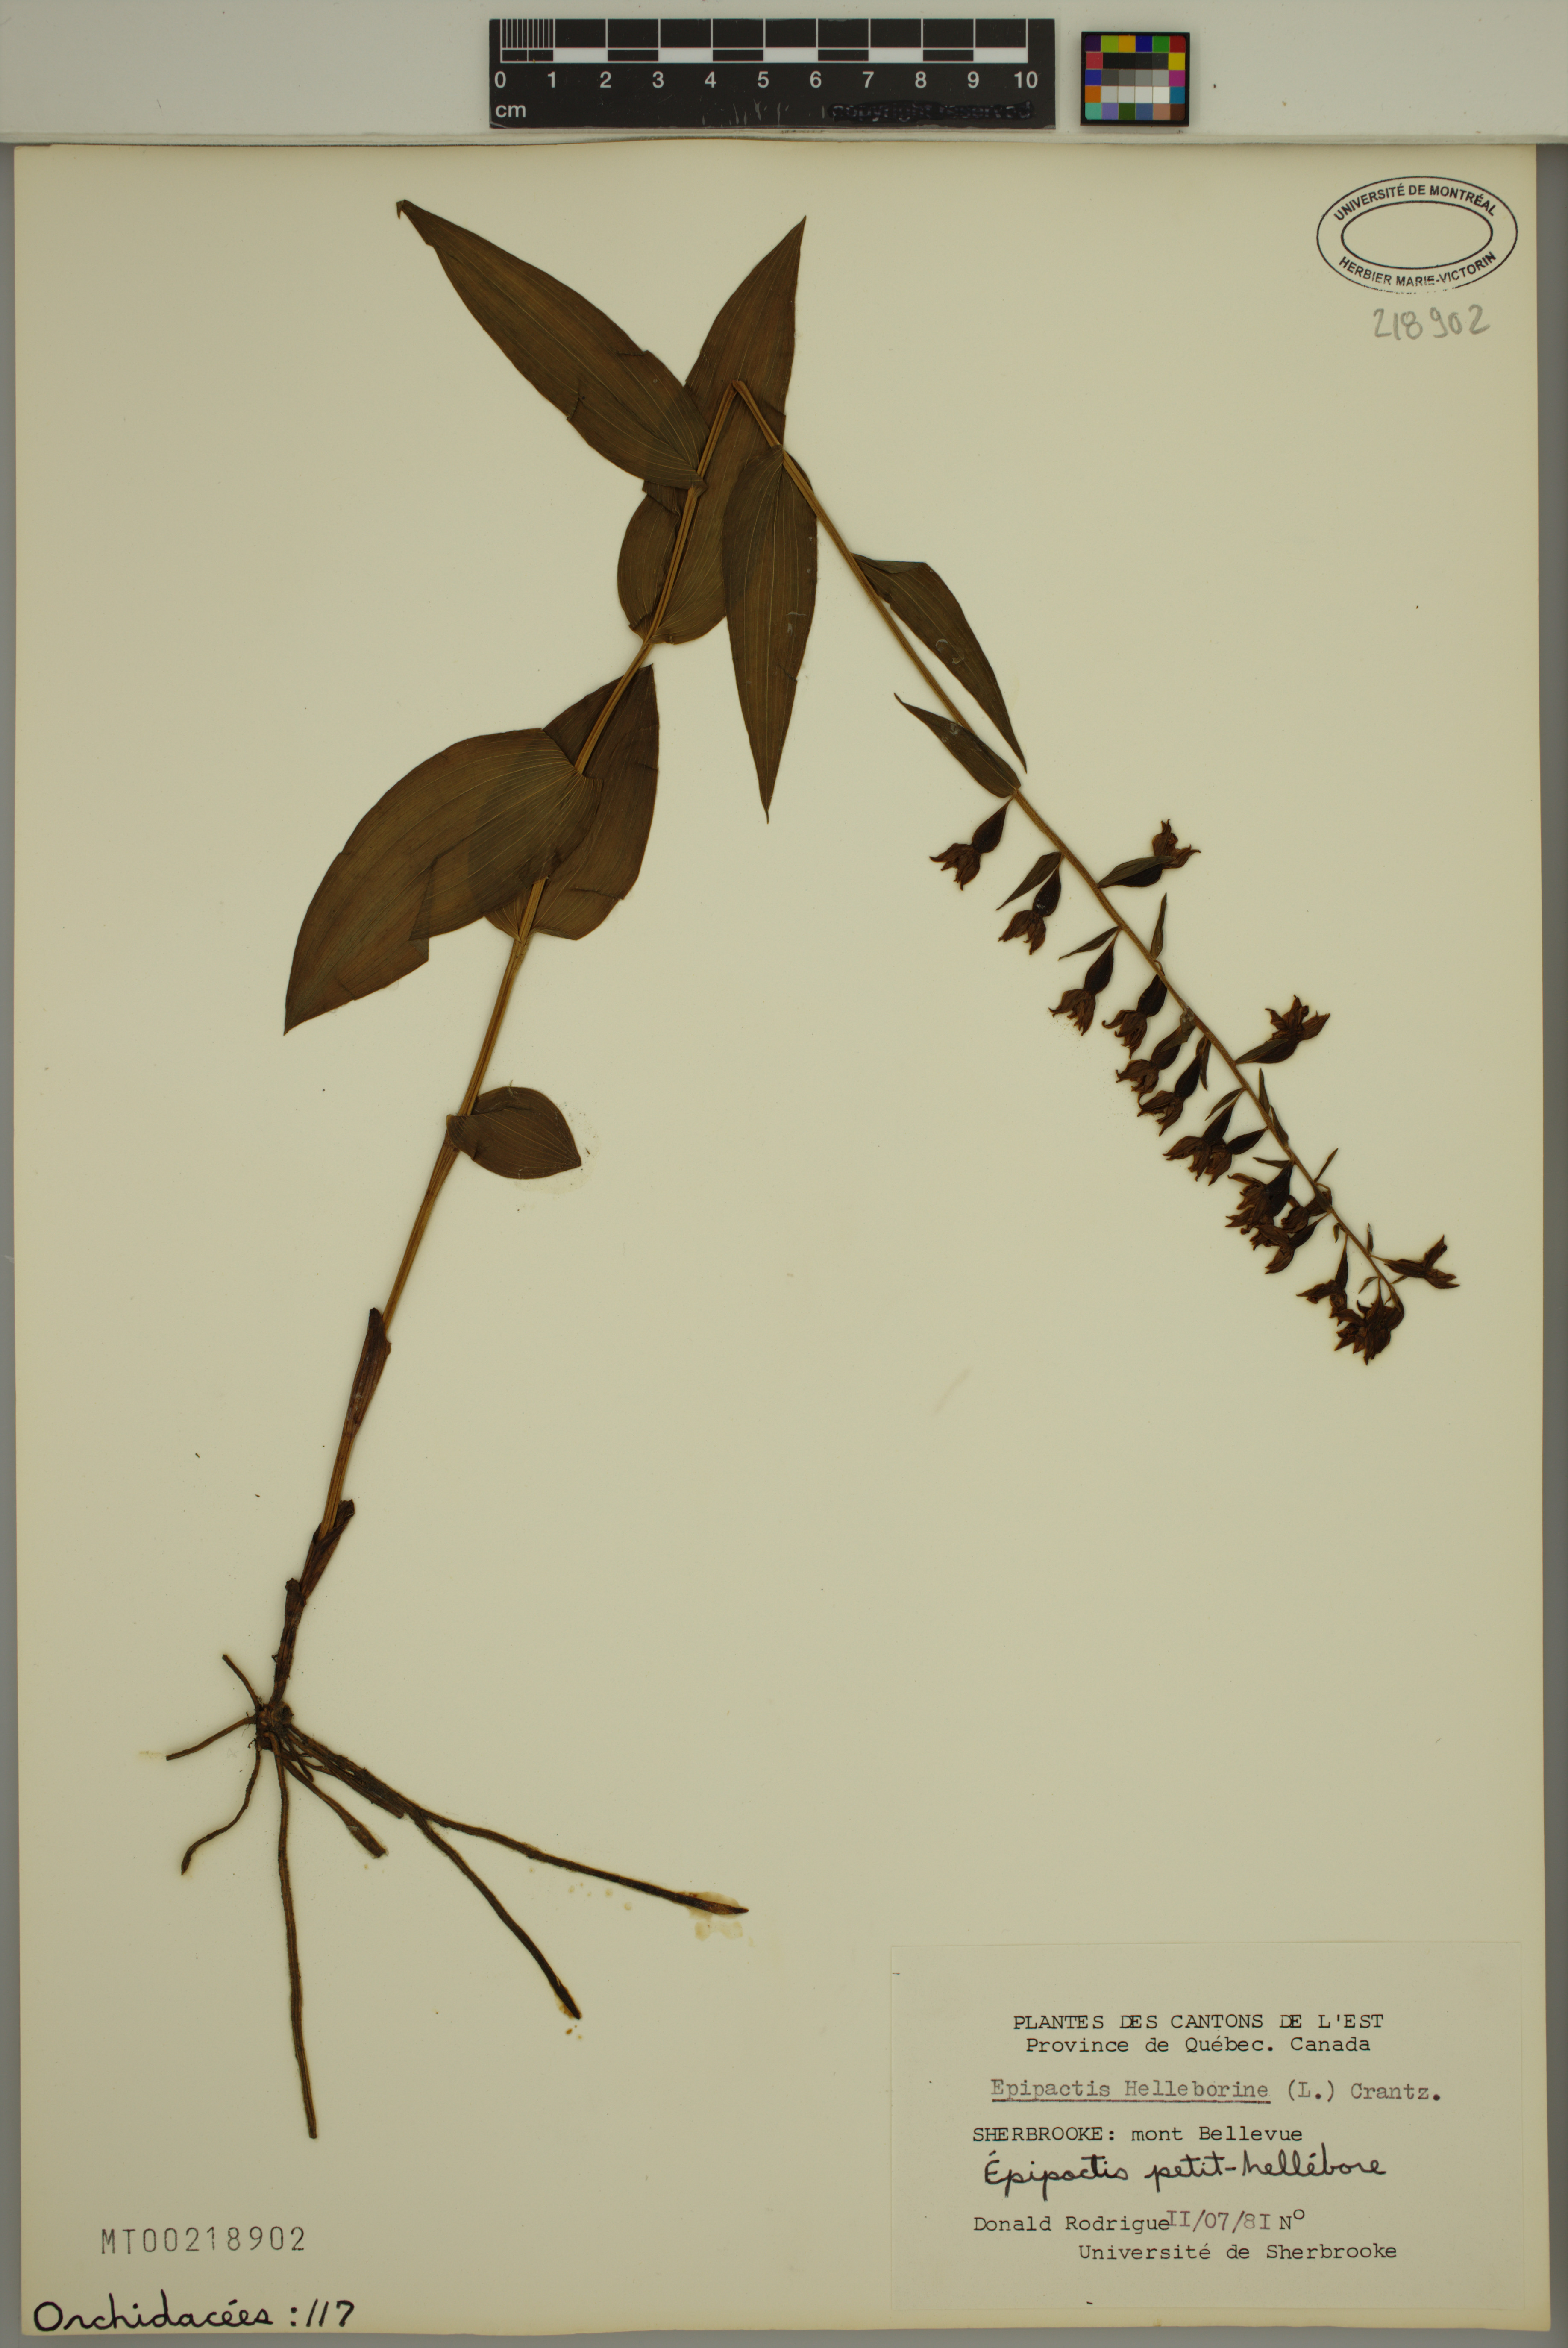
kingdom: Plantae
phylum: Tracheophyta
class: Liliopsida
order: Asparagales
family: Orchidaceae
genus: Epipactis
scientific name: Epipactis helleborine
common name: Broad-leaved helleborine
